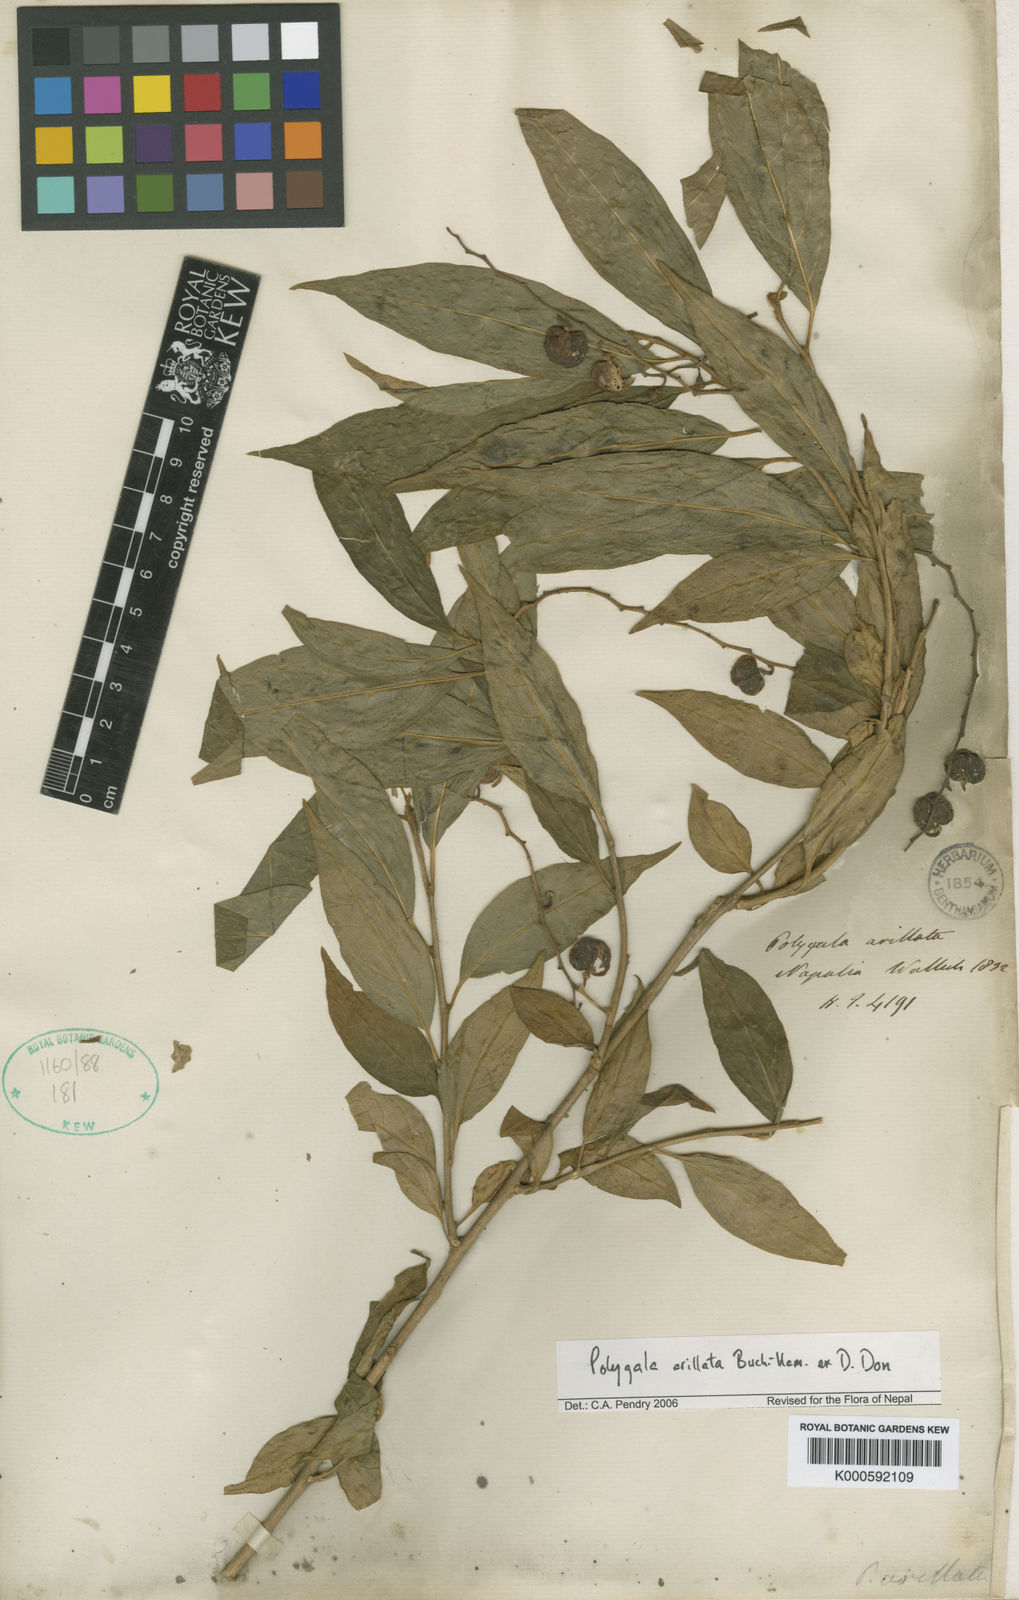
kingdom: Plantae
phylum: Tracheophyta
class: Magnoliopsida
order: Fabales
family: Polygalaceae
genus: Polygala
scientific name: Polygala arillata
